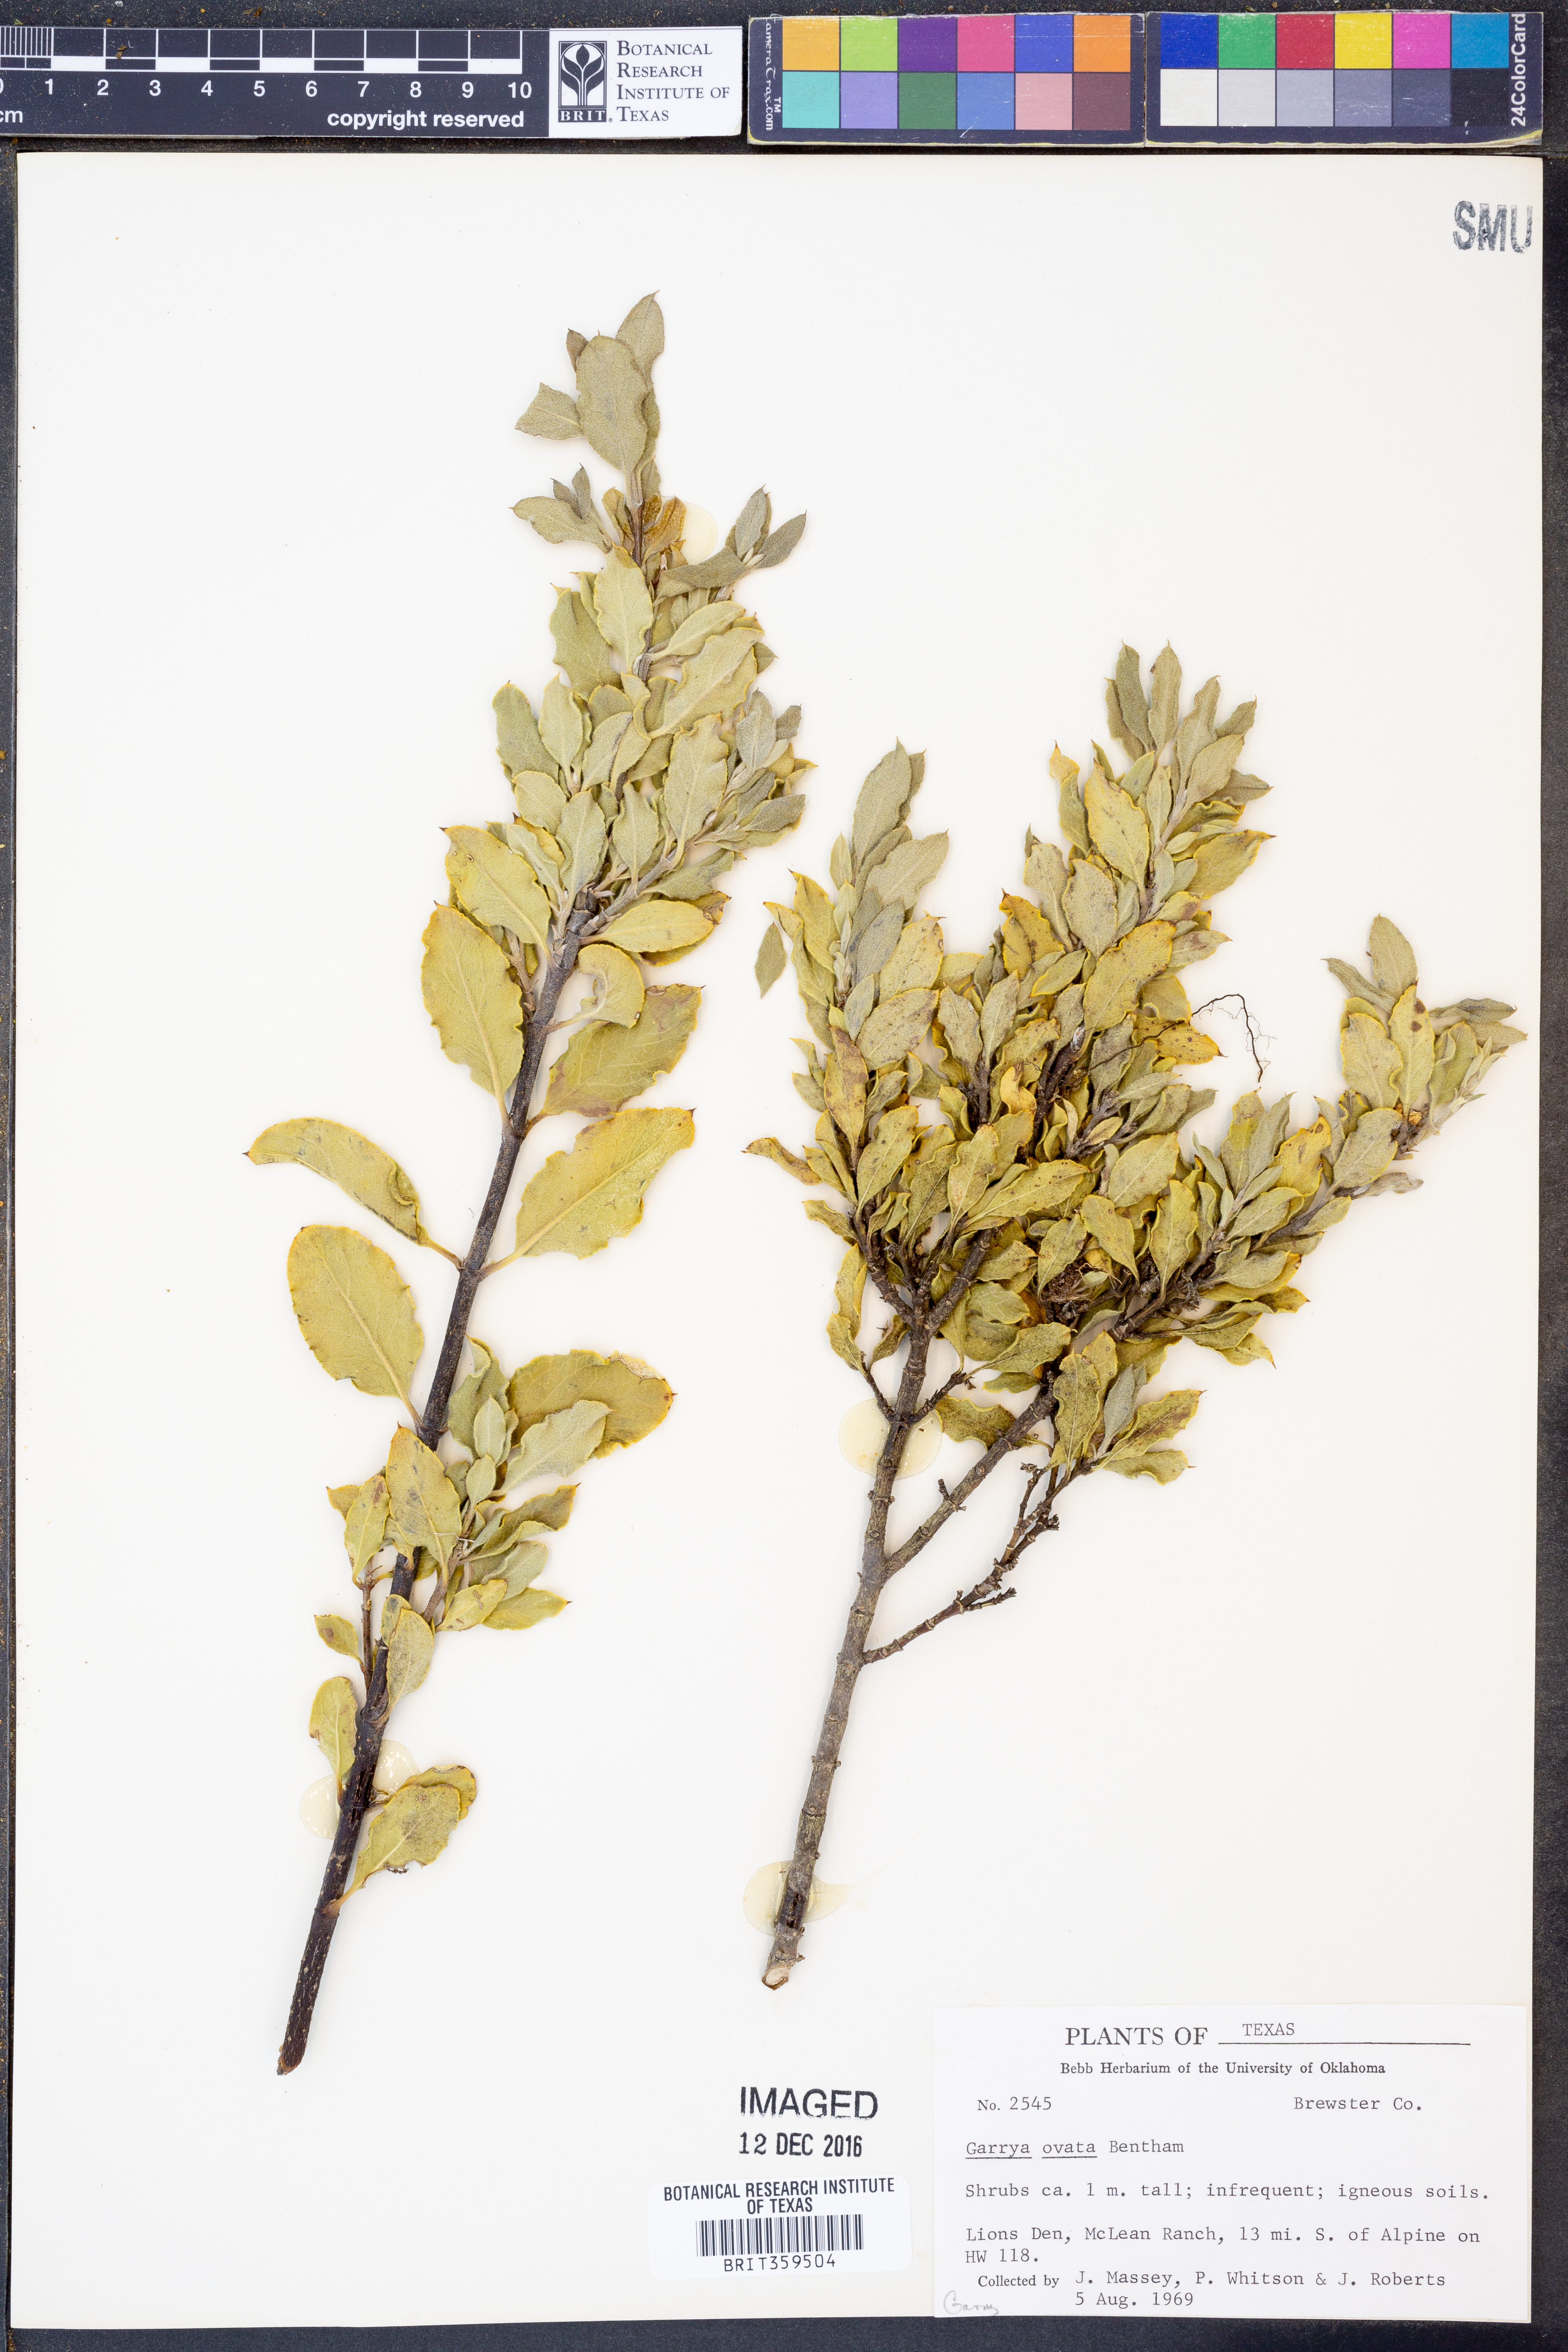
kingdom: Plantae
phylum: Tracheophyta
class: Magnoliopsida
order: Garryales
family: Garryaceae
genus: Garrya
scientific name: Garrya ovata
